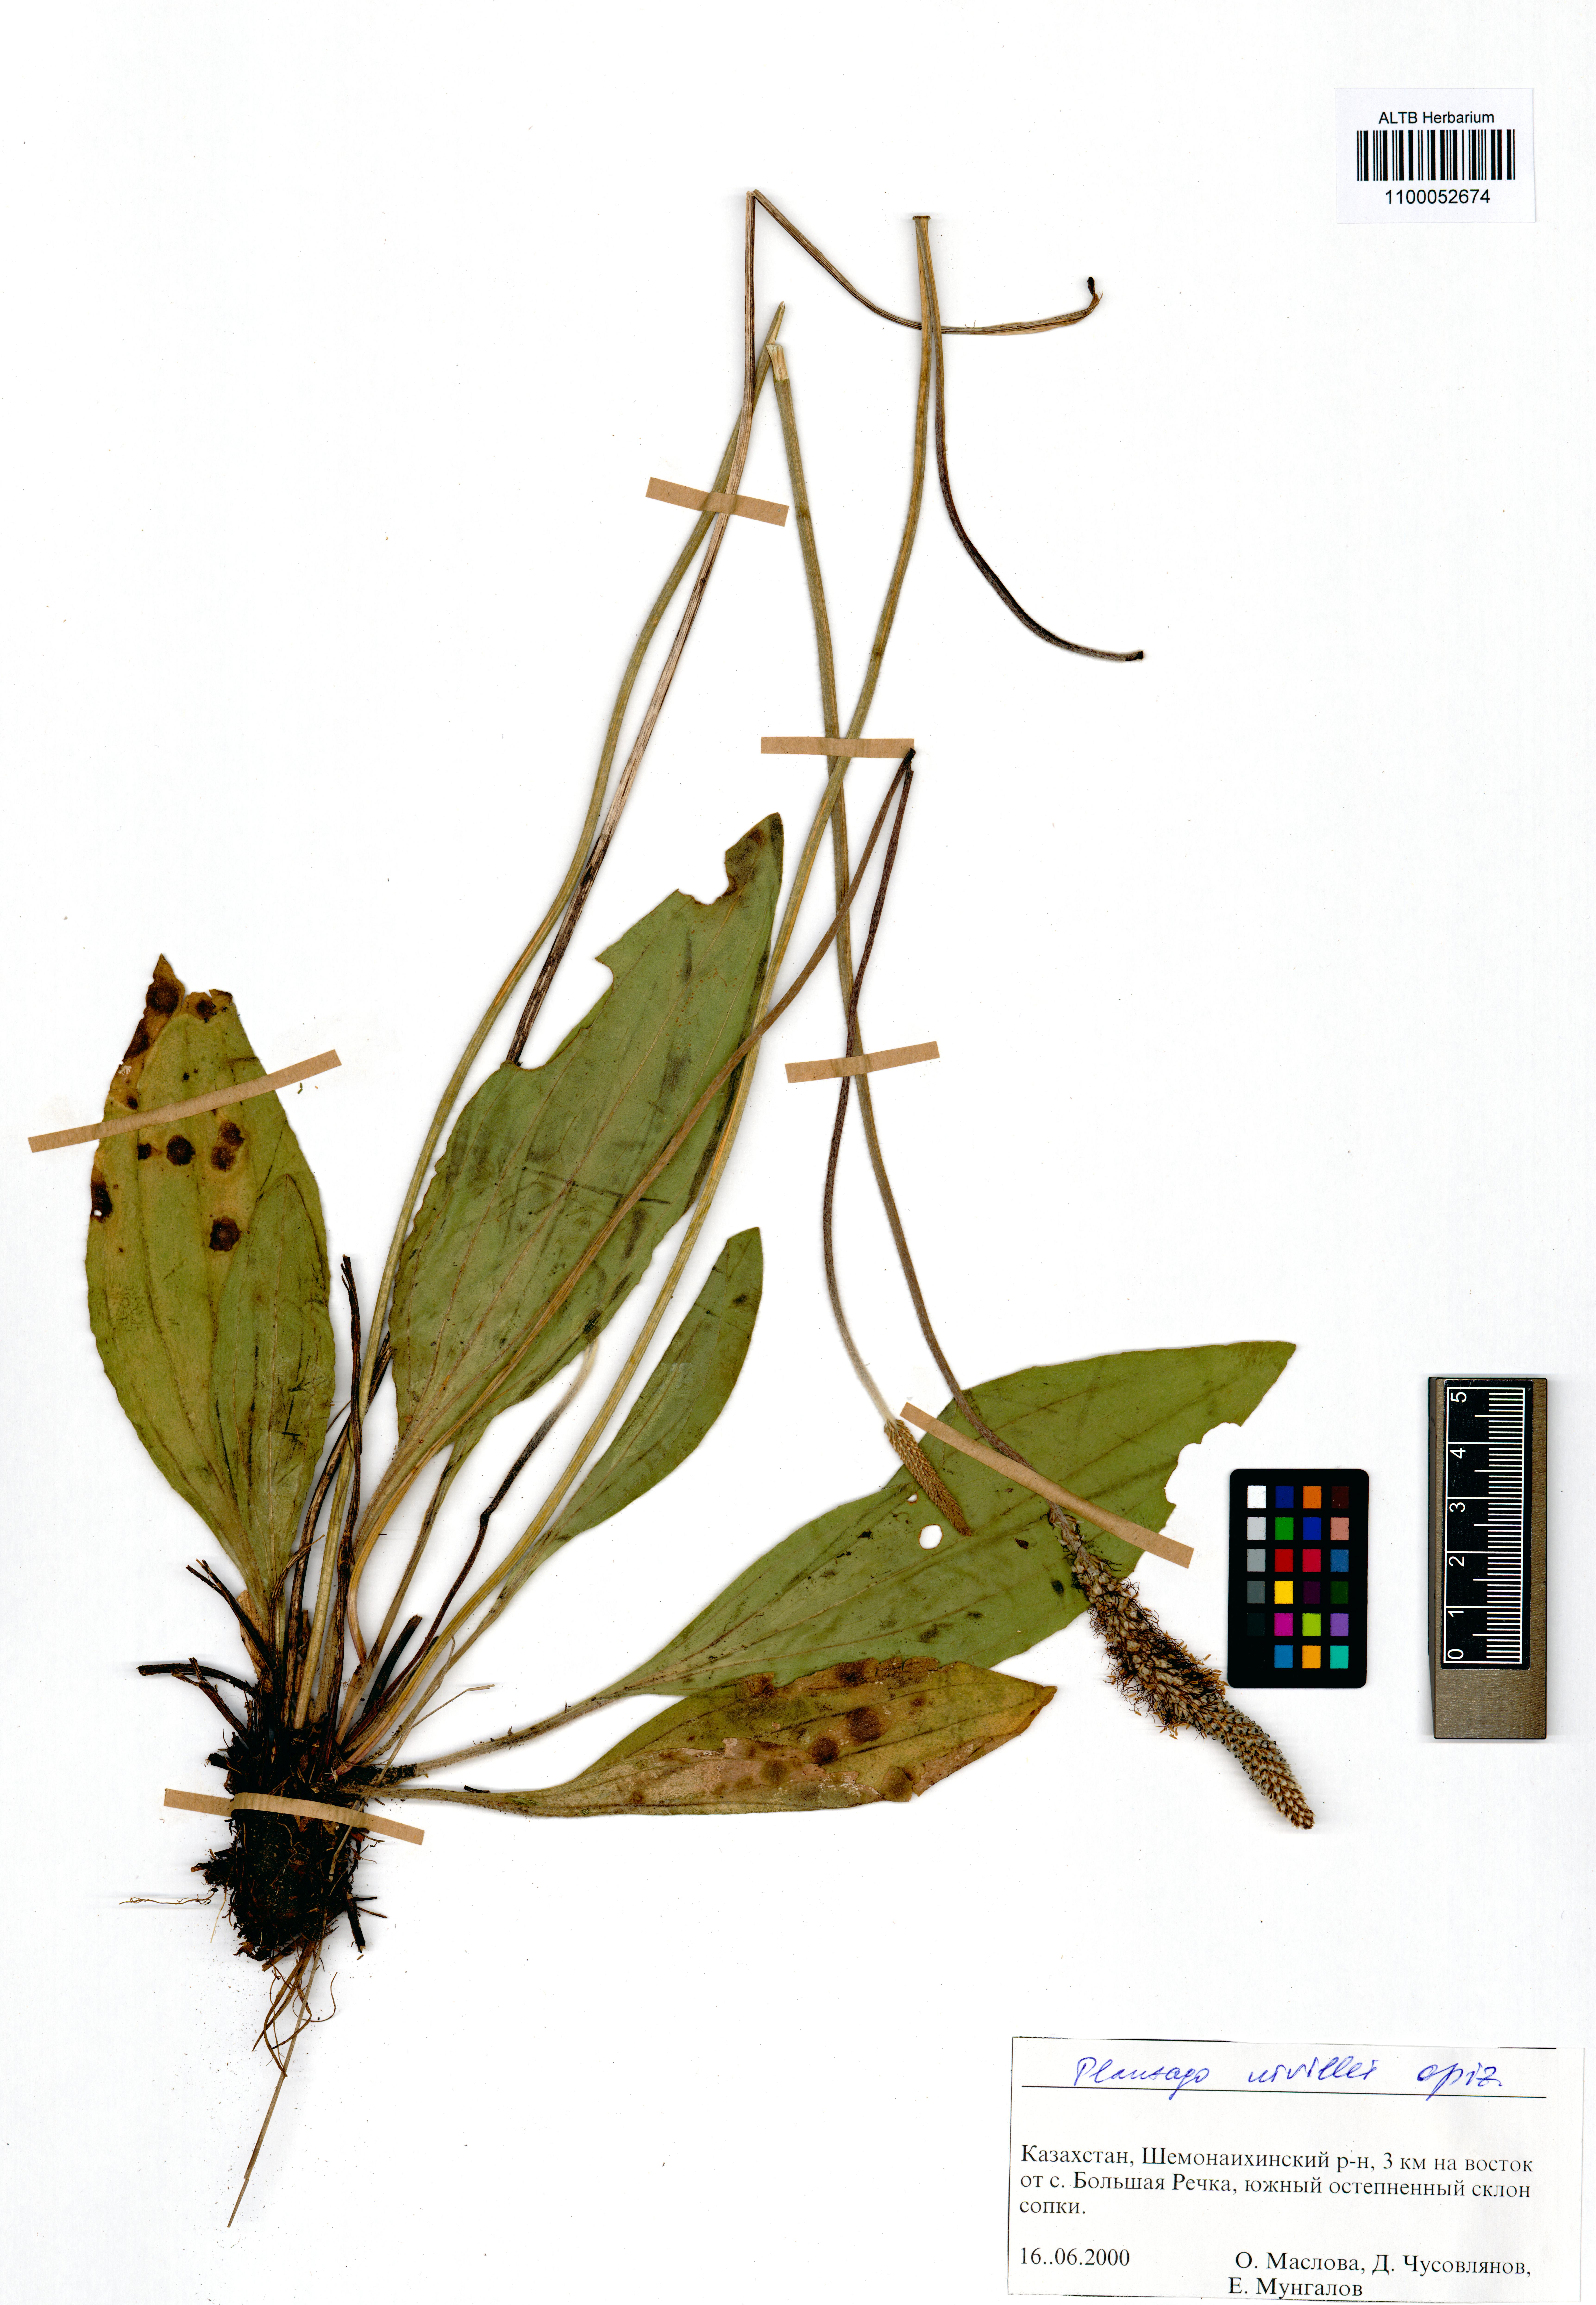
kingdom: Plantae
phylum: Tracheophyta
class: Magnoliopsida
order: Lamiales
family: Plantaginaceae
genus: Plantago
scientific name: Plantago urvillei
